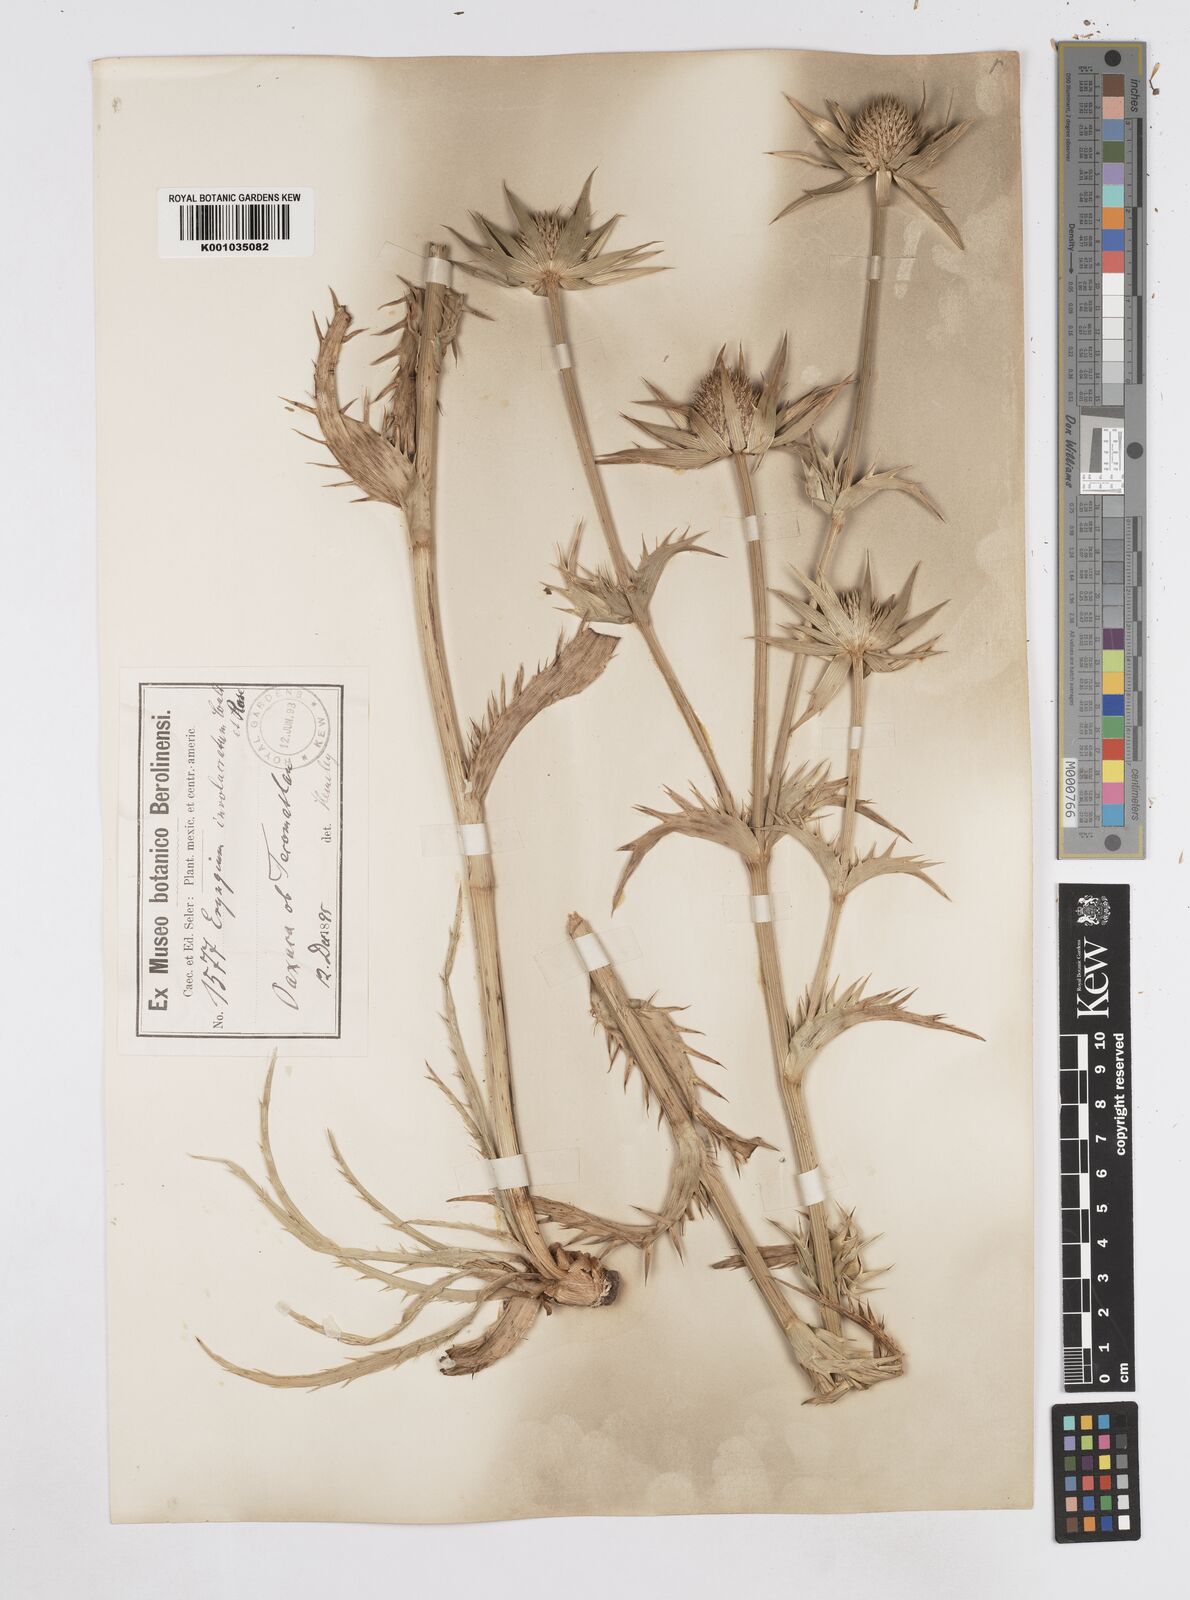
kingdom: Plantae
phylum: Tracheophyta
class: Magnoliopsida
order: Apiales
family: Apiaceae
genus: Eryngium
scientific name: Eryngium monocephalum
